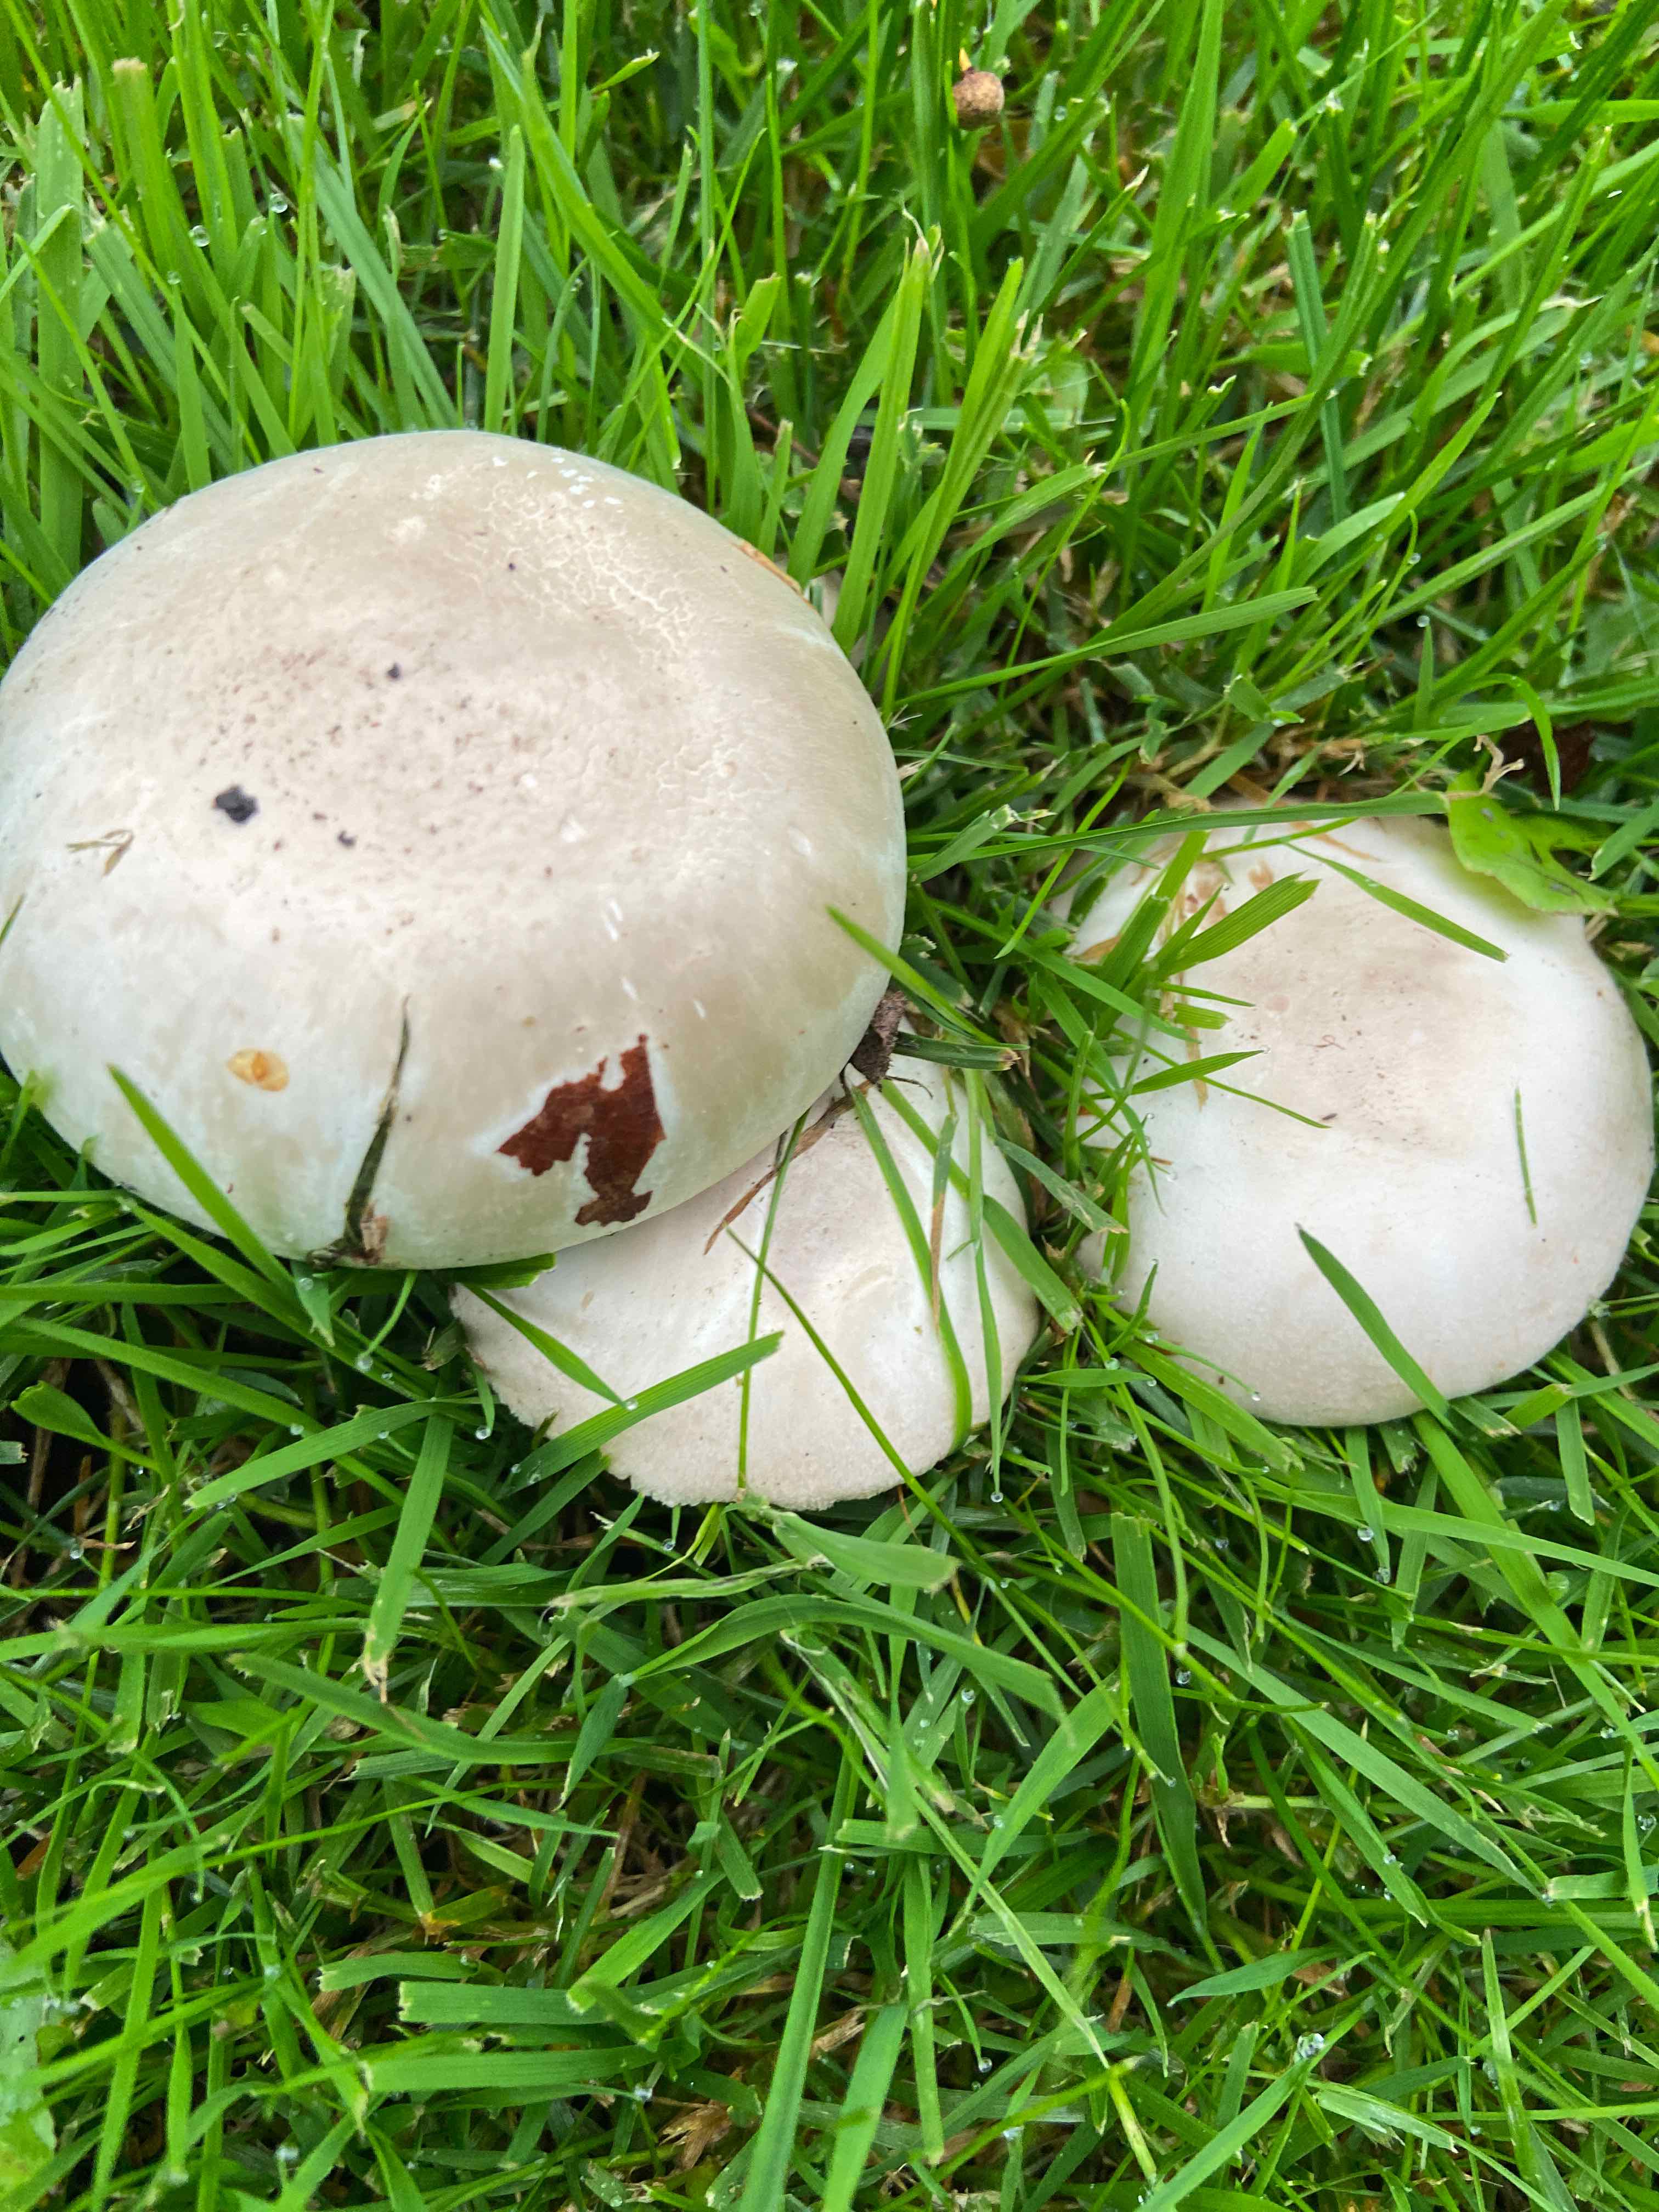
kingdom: Fungi
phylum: Basidiomycota
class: Agaricomycetes
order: Agaricales
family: Agaricaceae
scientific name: Agaricaceae
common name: champignonfamilien
